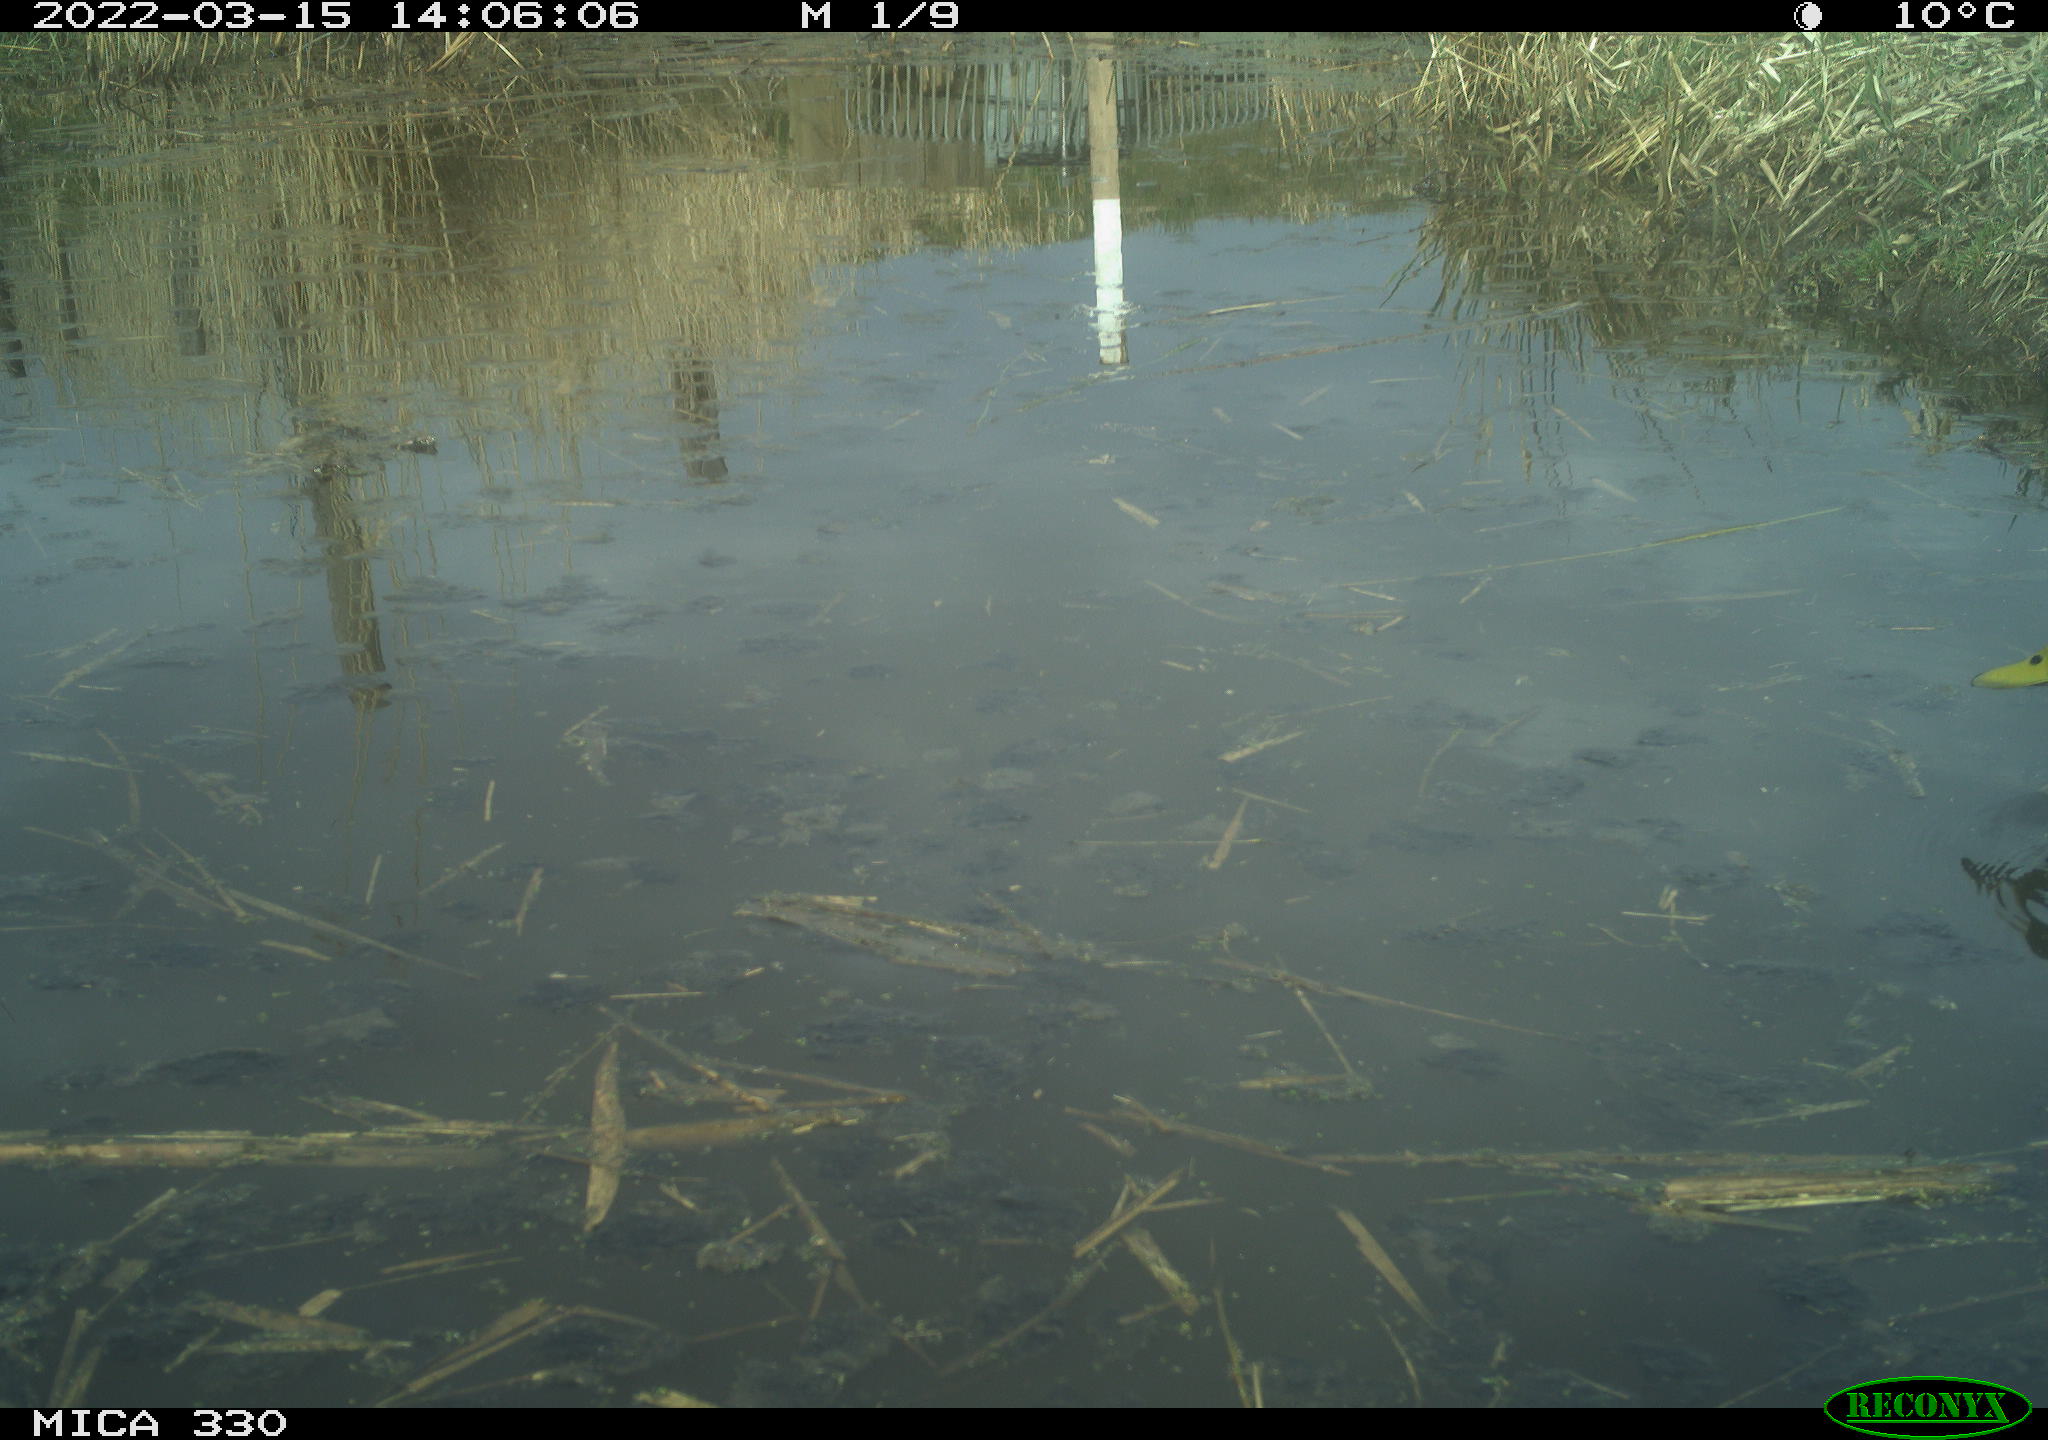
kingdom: Animalia
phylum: Chordata
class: Aves
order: Anseriformes
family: Anatidae
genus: Anas
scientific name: Anas platyrhynchos
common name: Mallard
